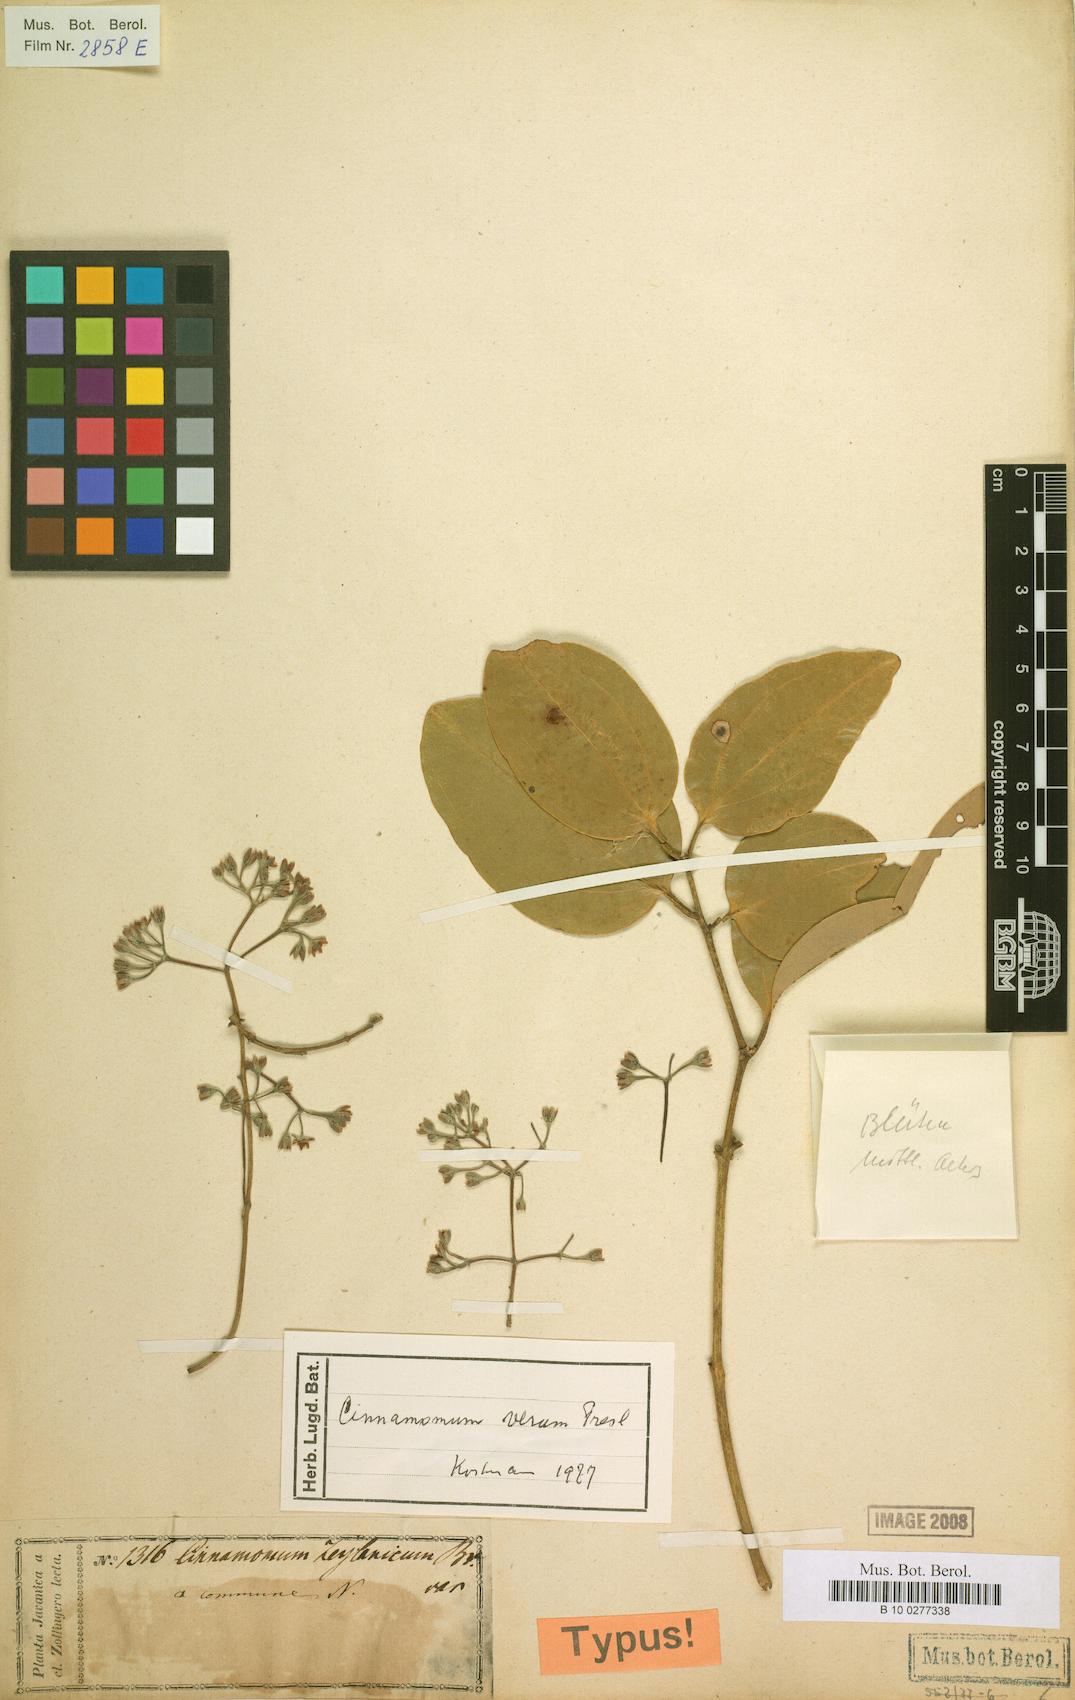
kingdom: Plantae
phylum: Tracheophyta
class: Magnoliopsida
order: Laurales
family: Lauraceae
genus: Cinnamomum
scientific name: Cinnamomum verum
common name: Cinnamon
